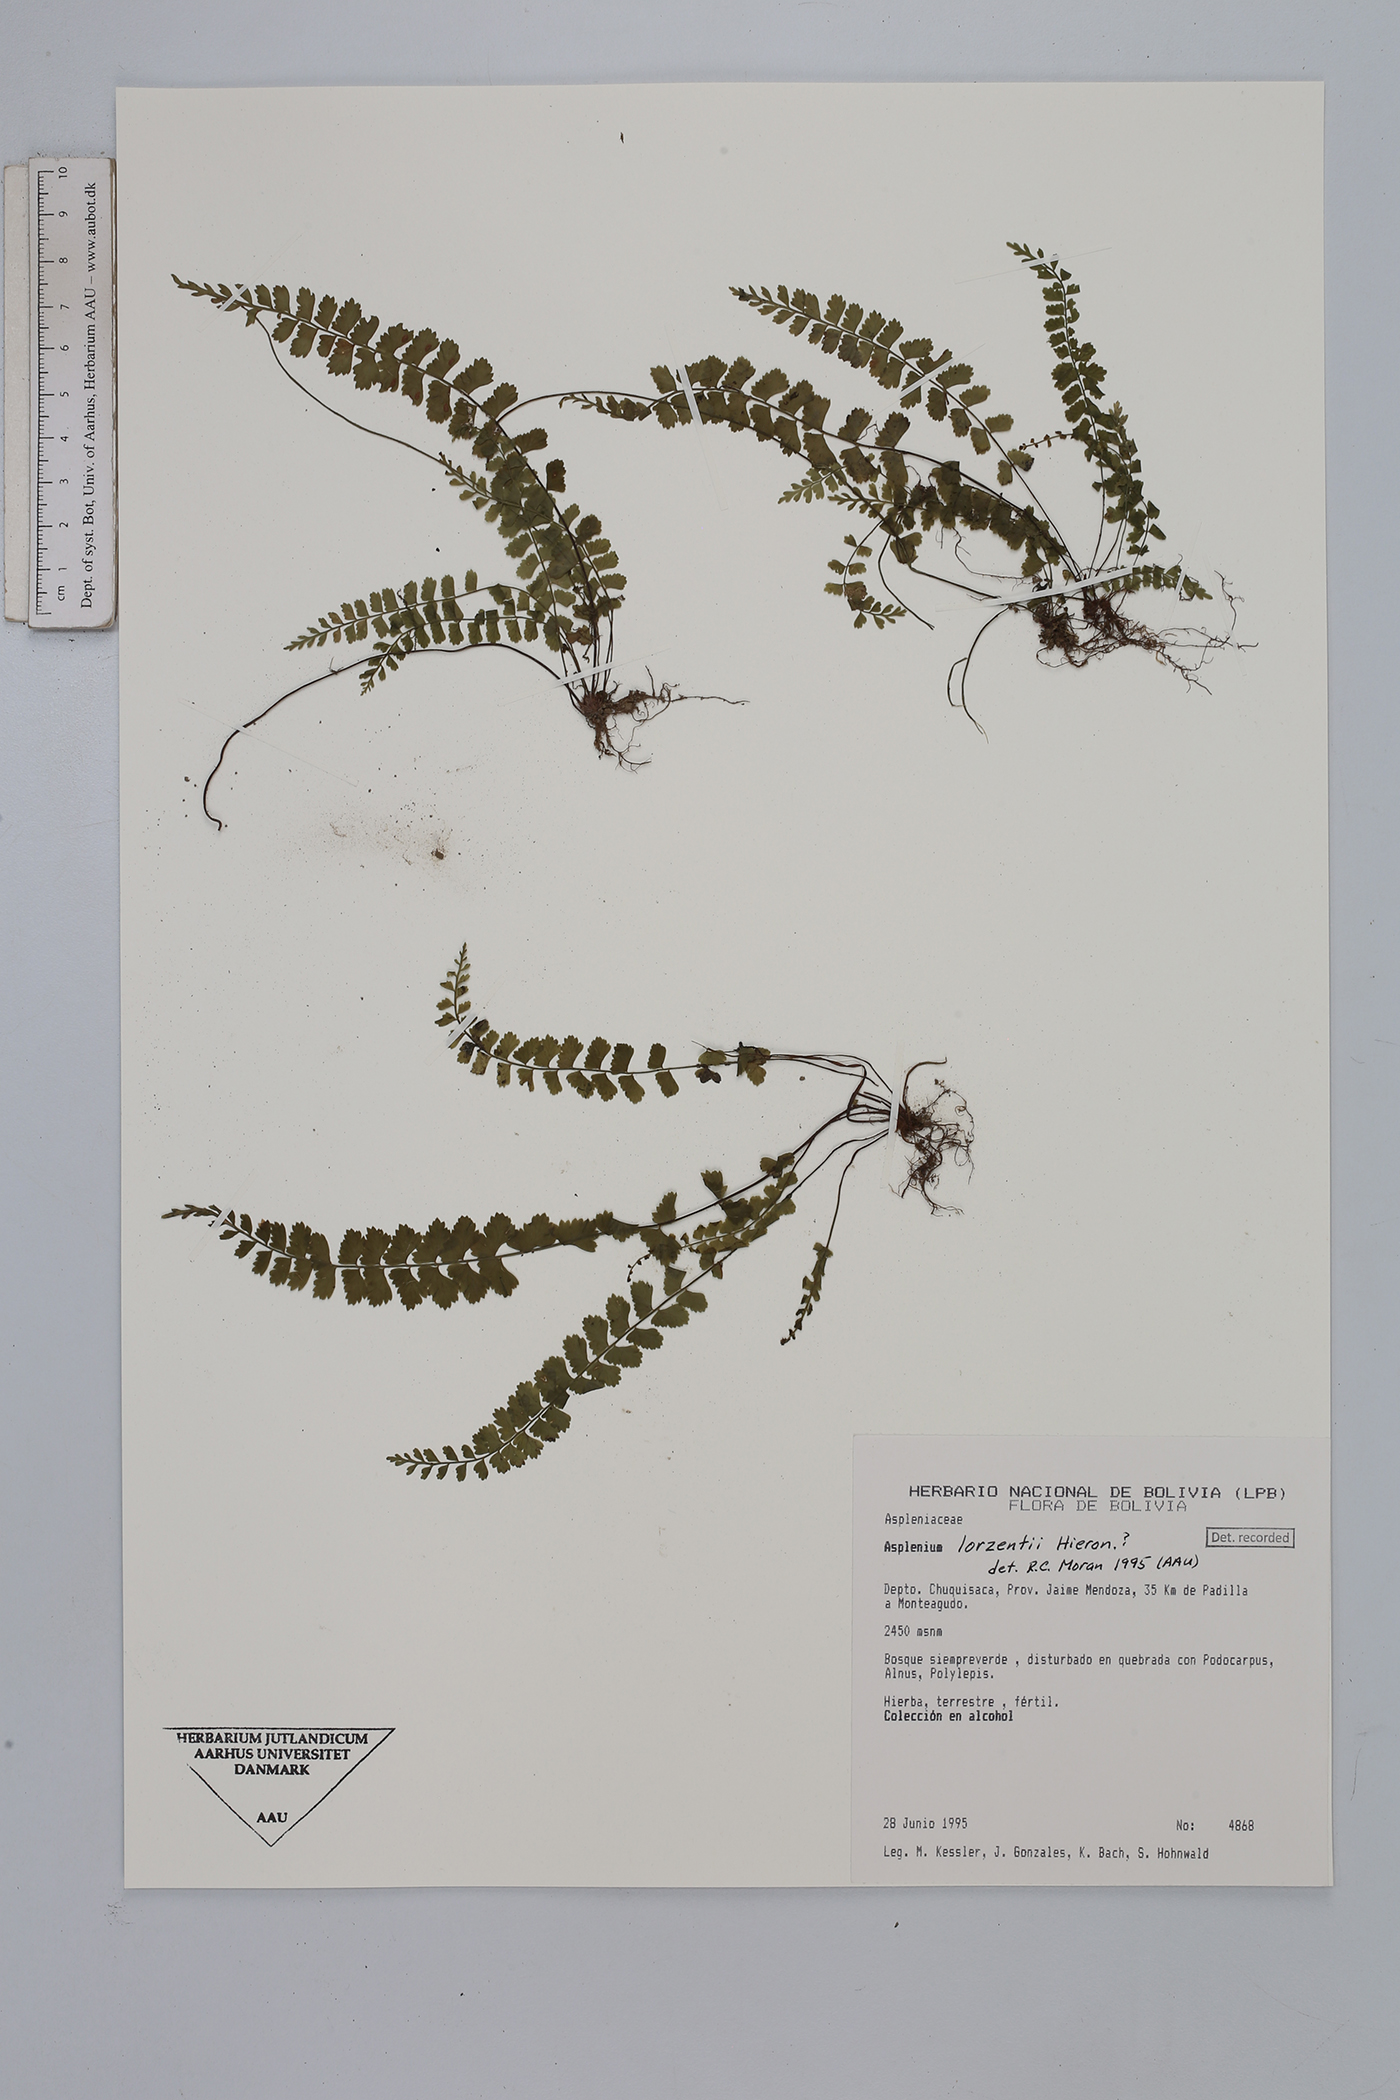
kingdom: Plantae
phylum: Tracheophyta
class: Polypodiopsida
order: Polypodiales
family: Aspleniaceae
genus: Asplenium
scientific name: Asplenium lorentzii
